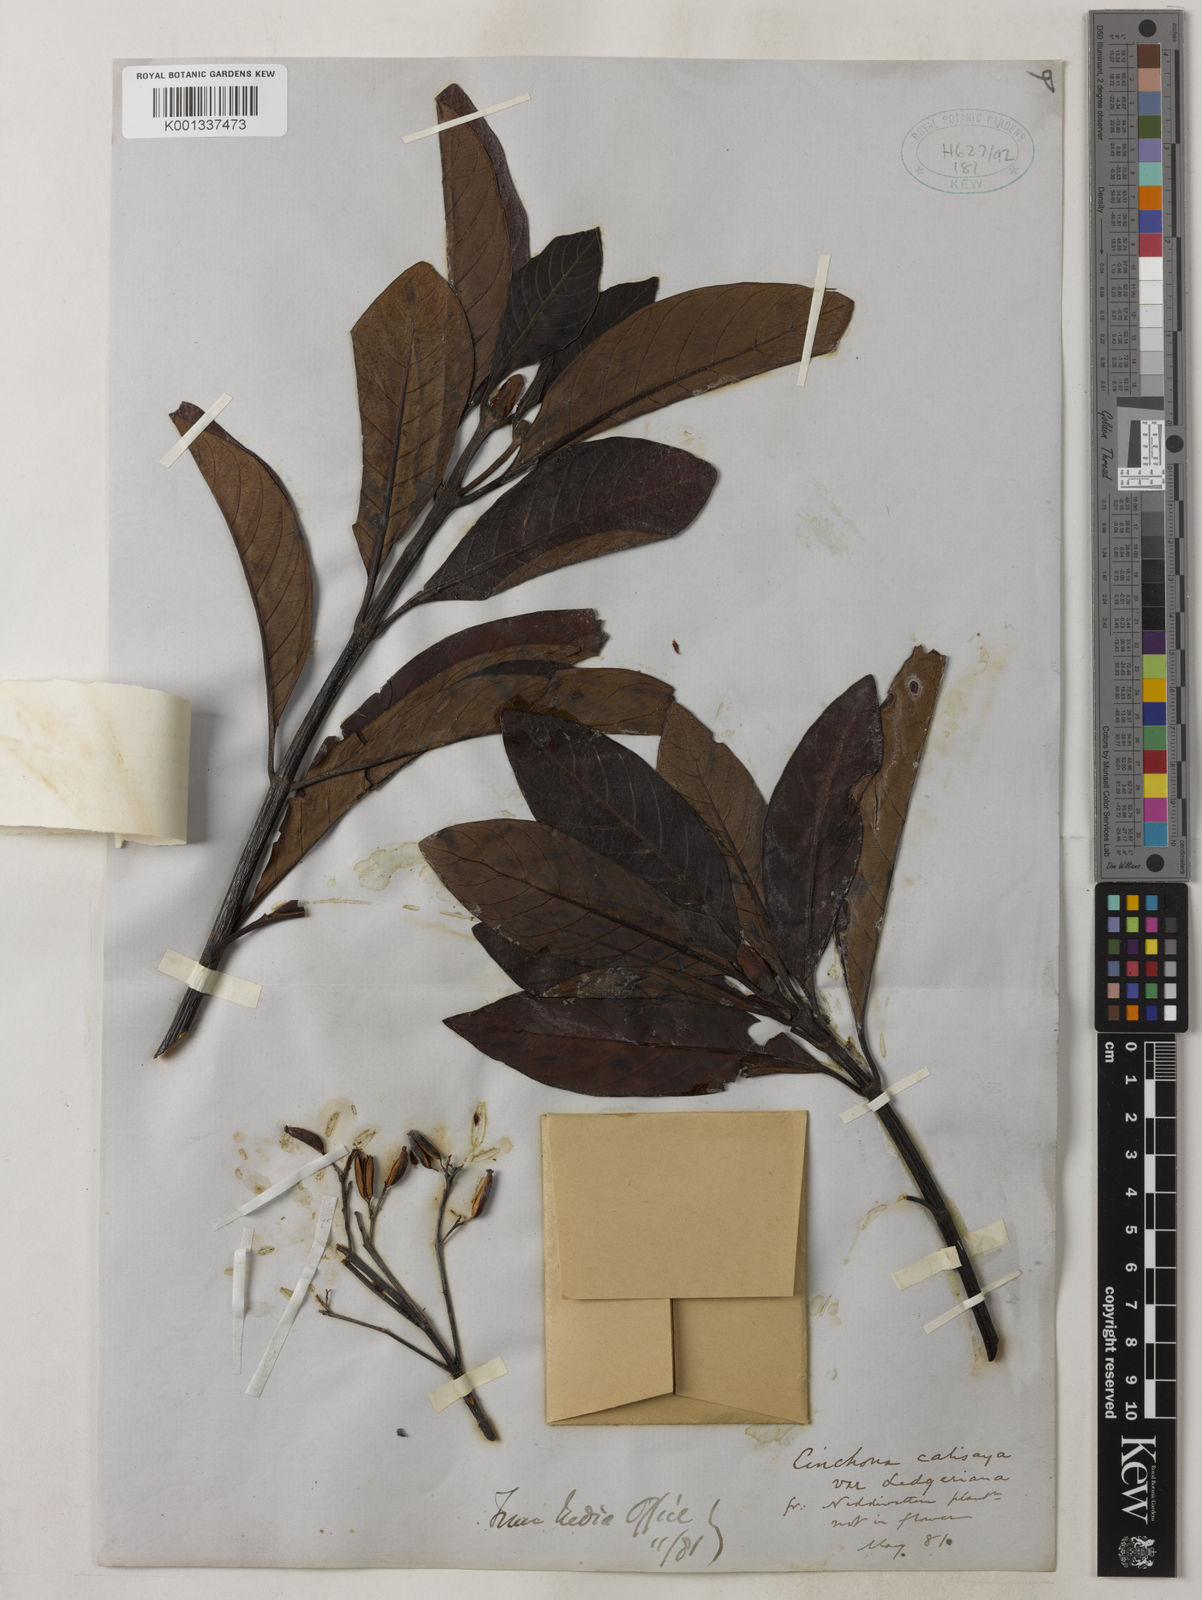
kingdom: Plantae
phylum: Tracheophyta
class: Magnoliopsida
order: Gentianales
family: Rubiaceae
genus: Cinchona
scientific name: Cinchona calisaya
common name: Ledgerbark
